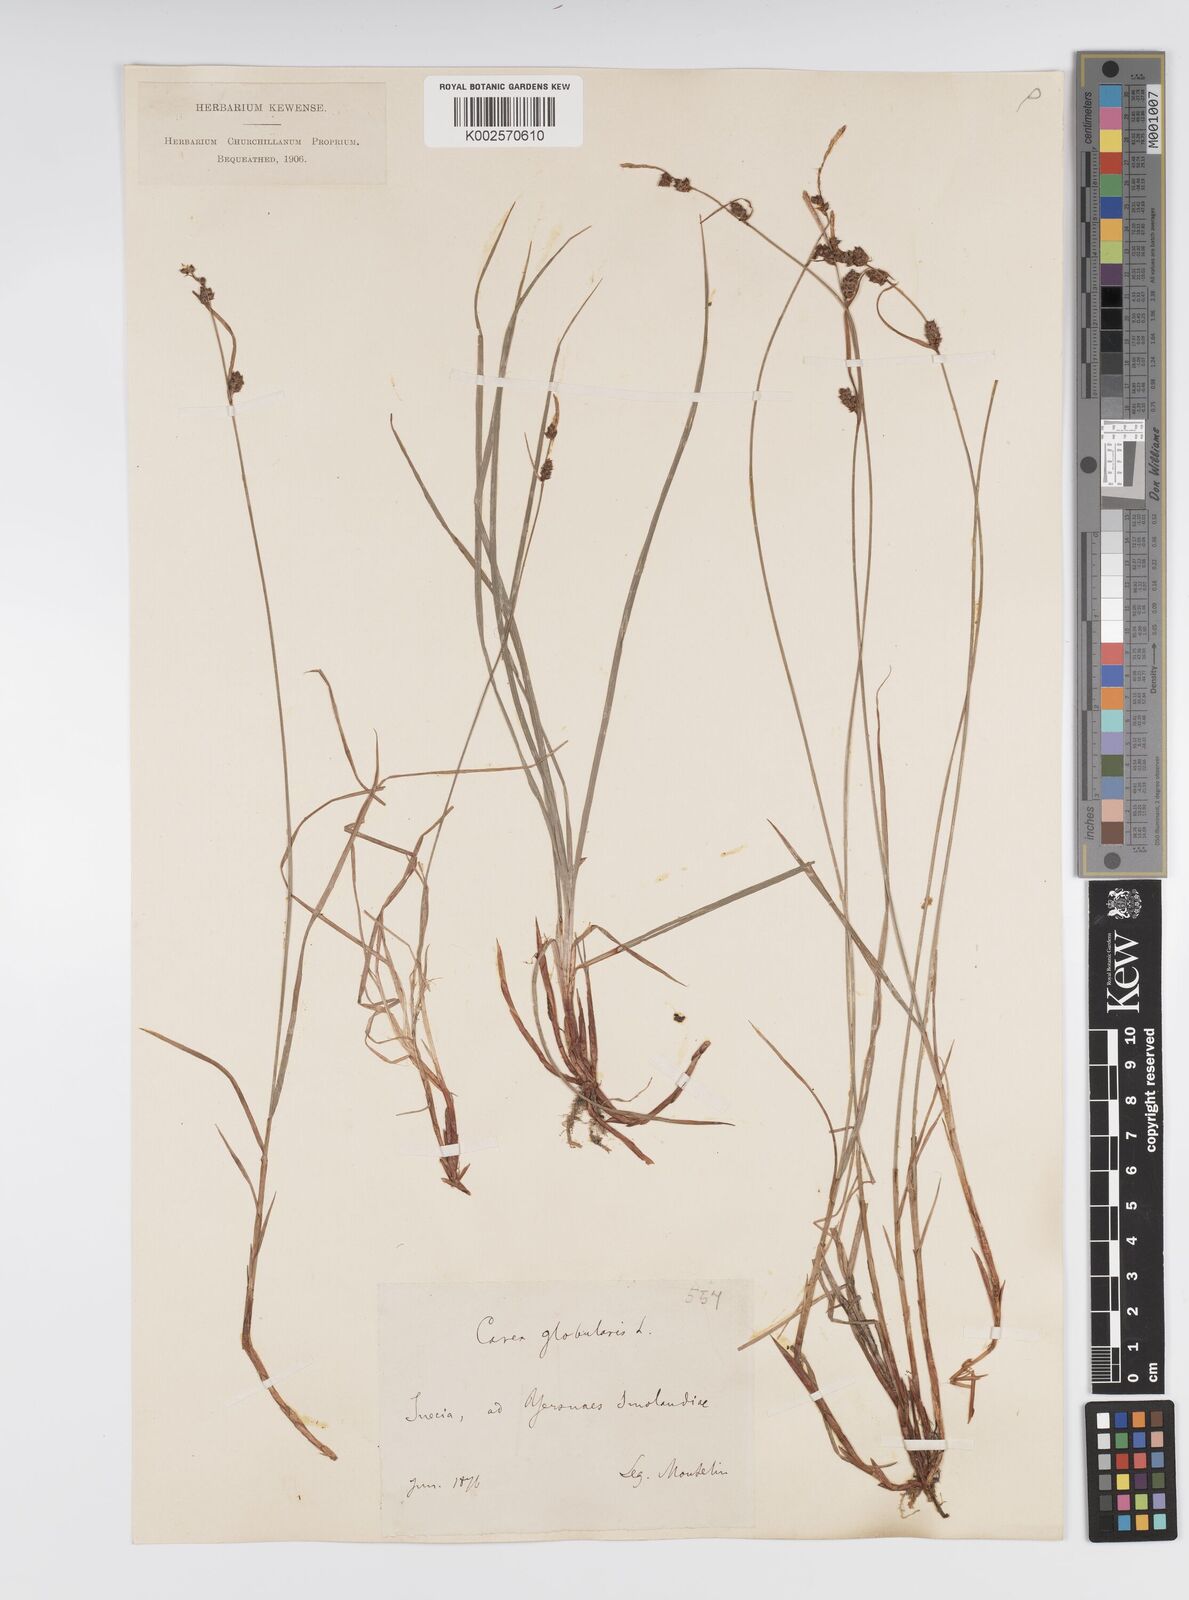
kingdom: Plantae
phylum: Tracheophyta
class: Liliopsida
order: Poales
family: Cyperaceae
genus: Carex
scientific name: Carex globularis
